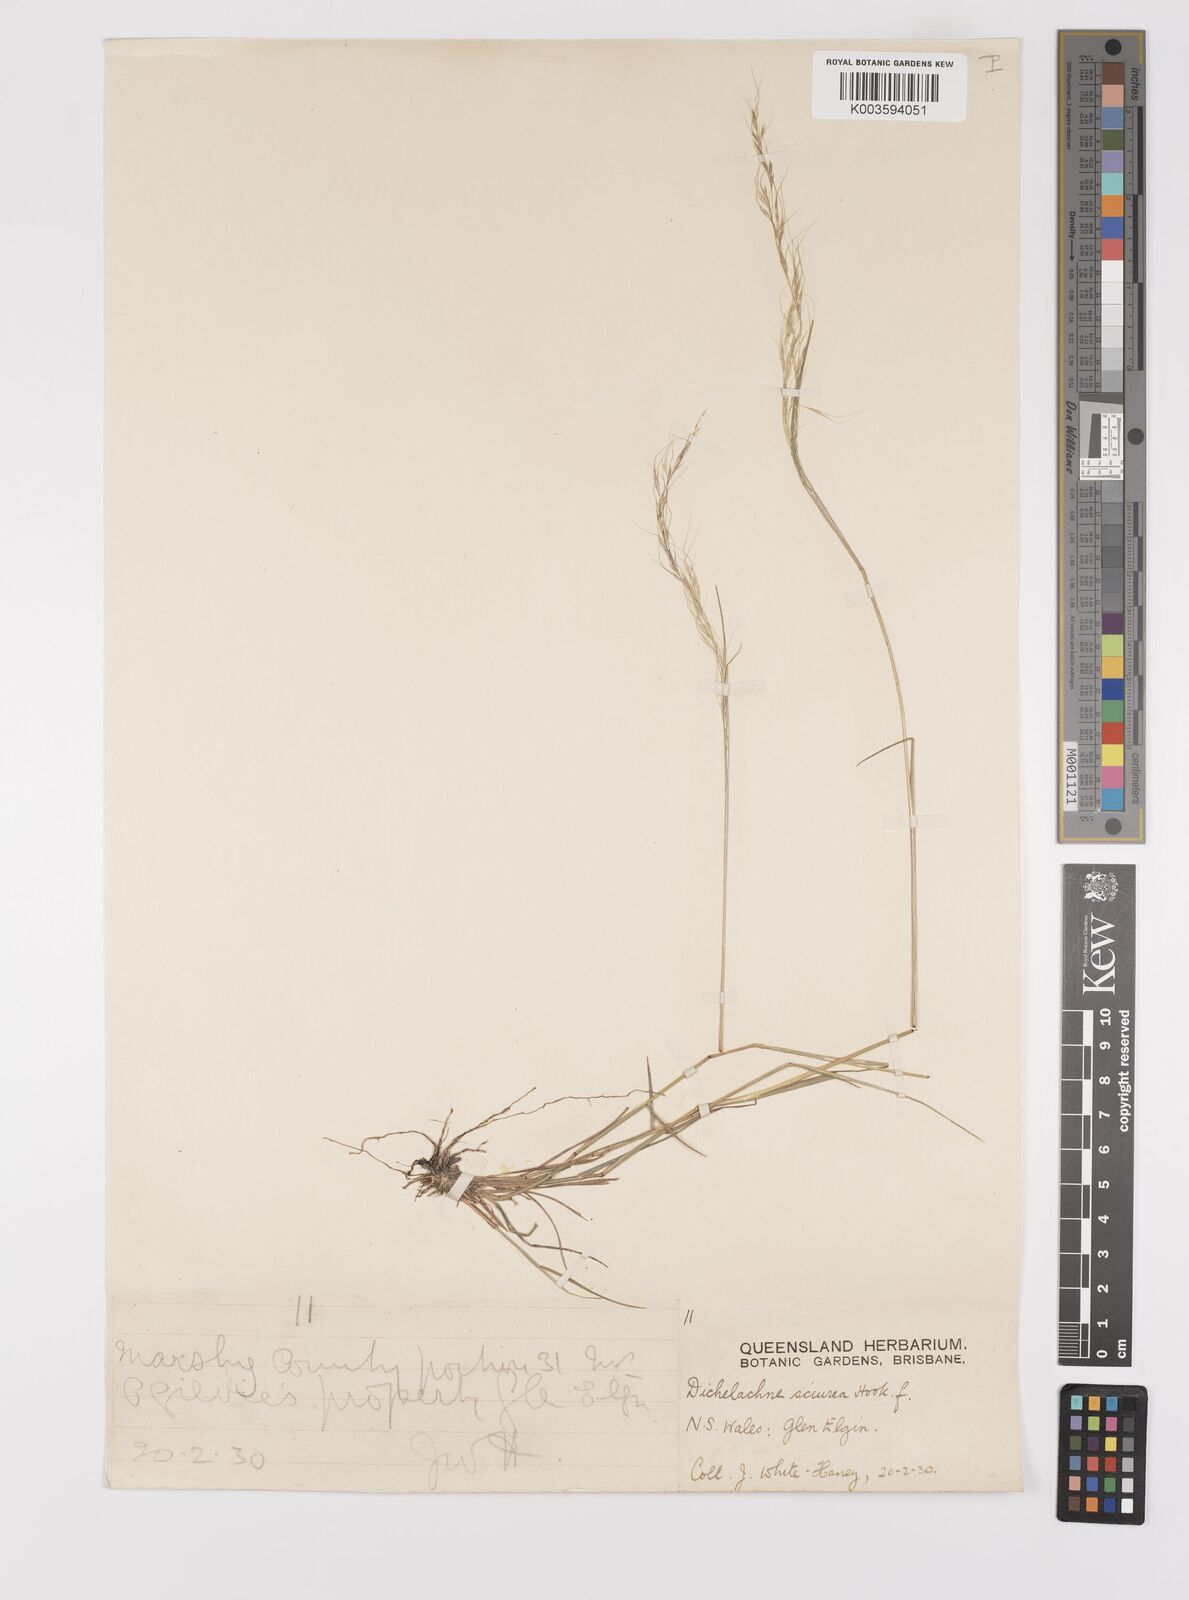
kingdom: Plantae
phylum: Tracheophyta
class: Liliopsida
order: Poales
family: Poaceae
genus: Dichelachne
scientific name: Dichelachne rara
